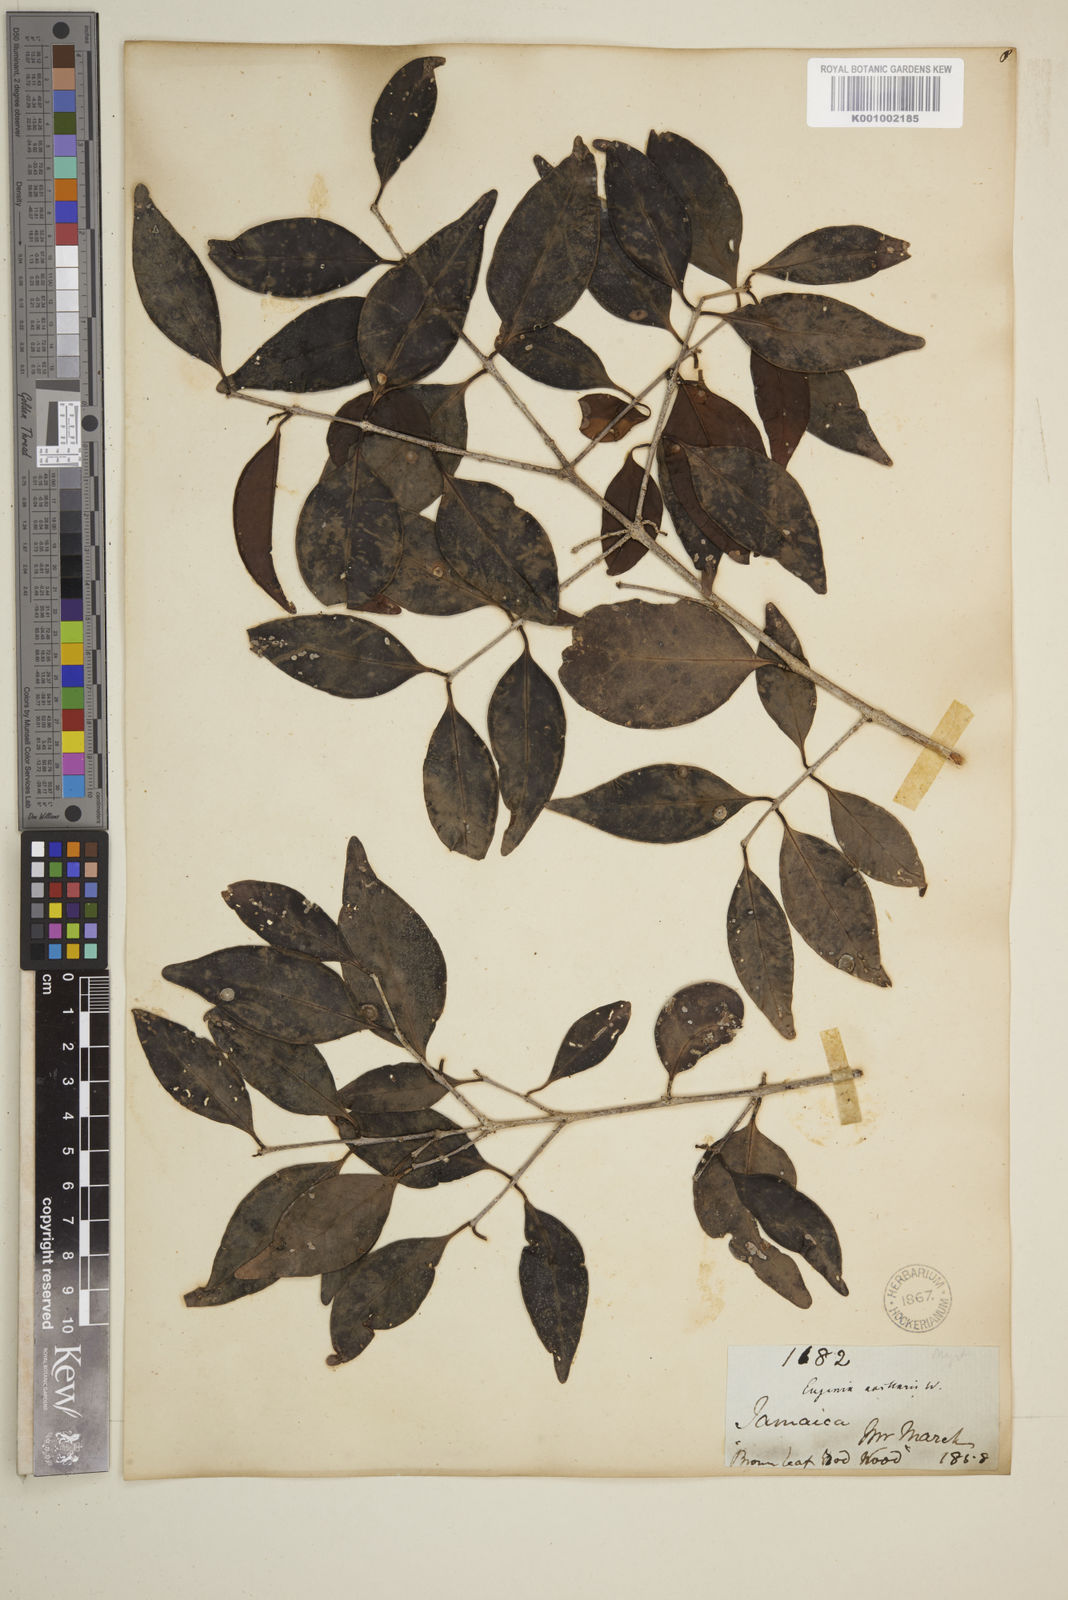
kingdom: Plantae
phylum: Tracheophyta
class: Magnoliopsida
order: Myrtales
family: Myrtaceae
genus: Eugenia
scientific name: Eugenia axillaris
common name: Choaky berry
